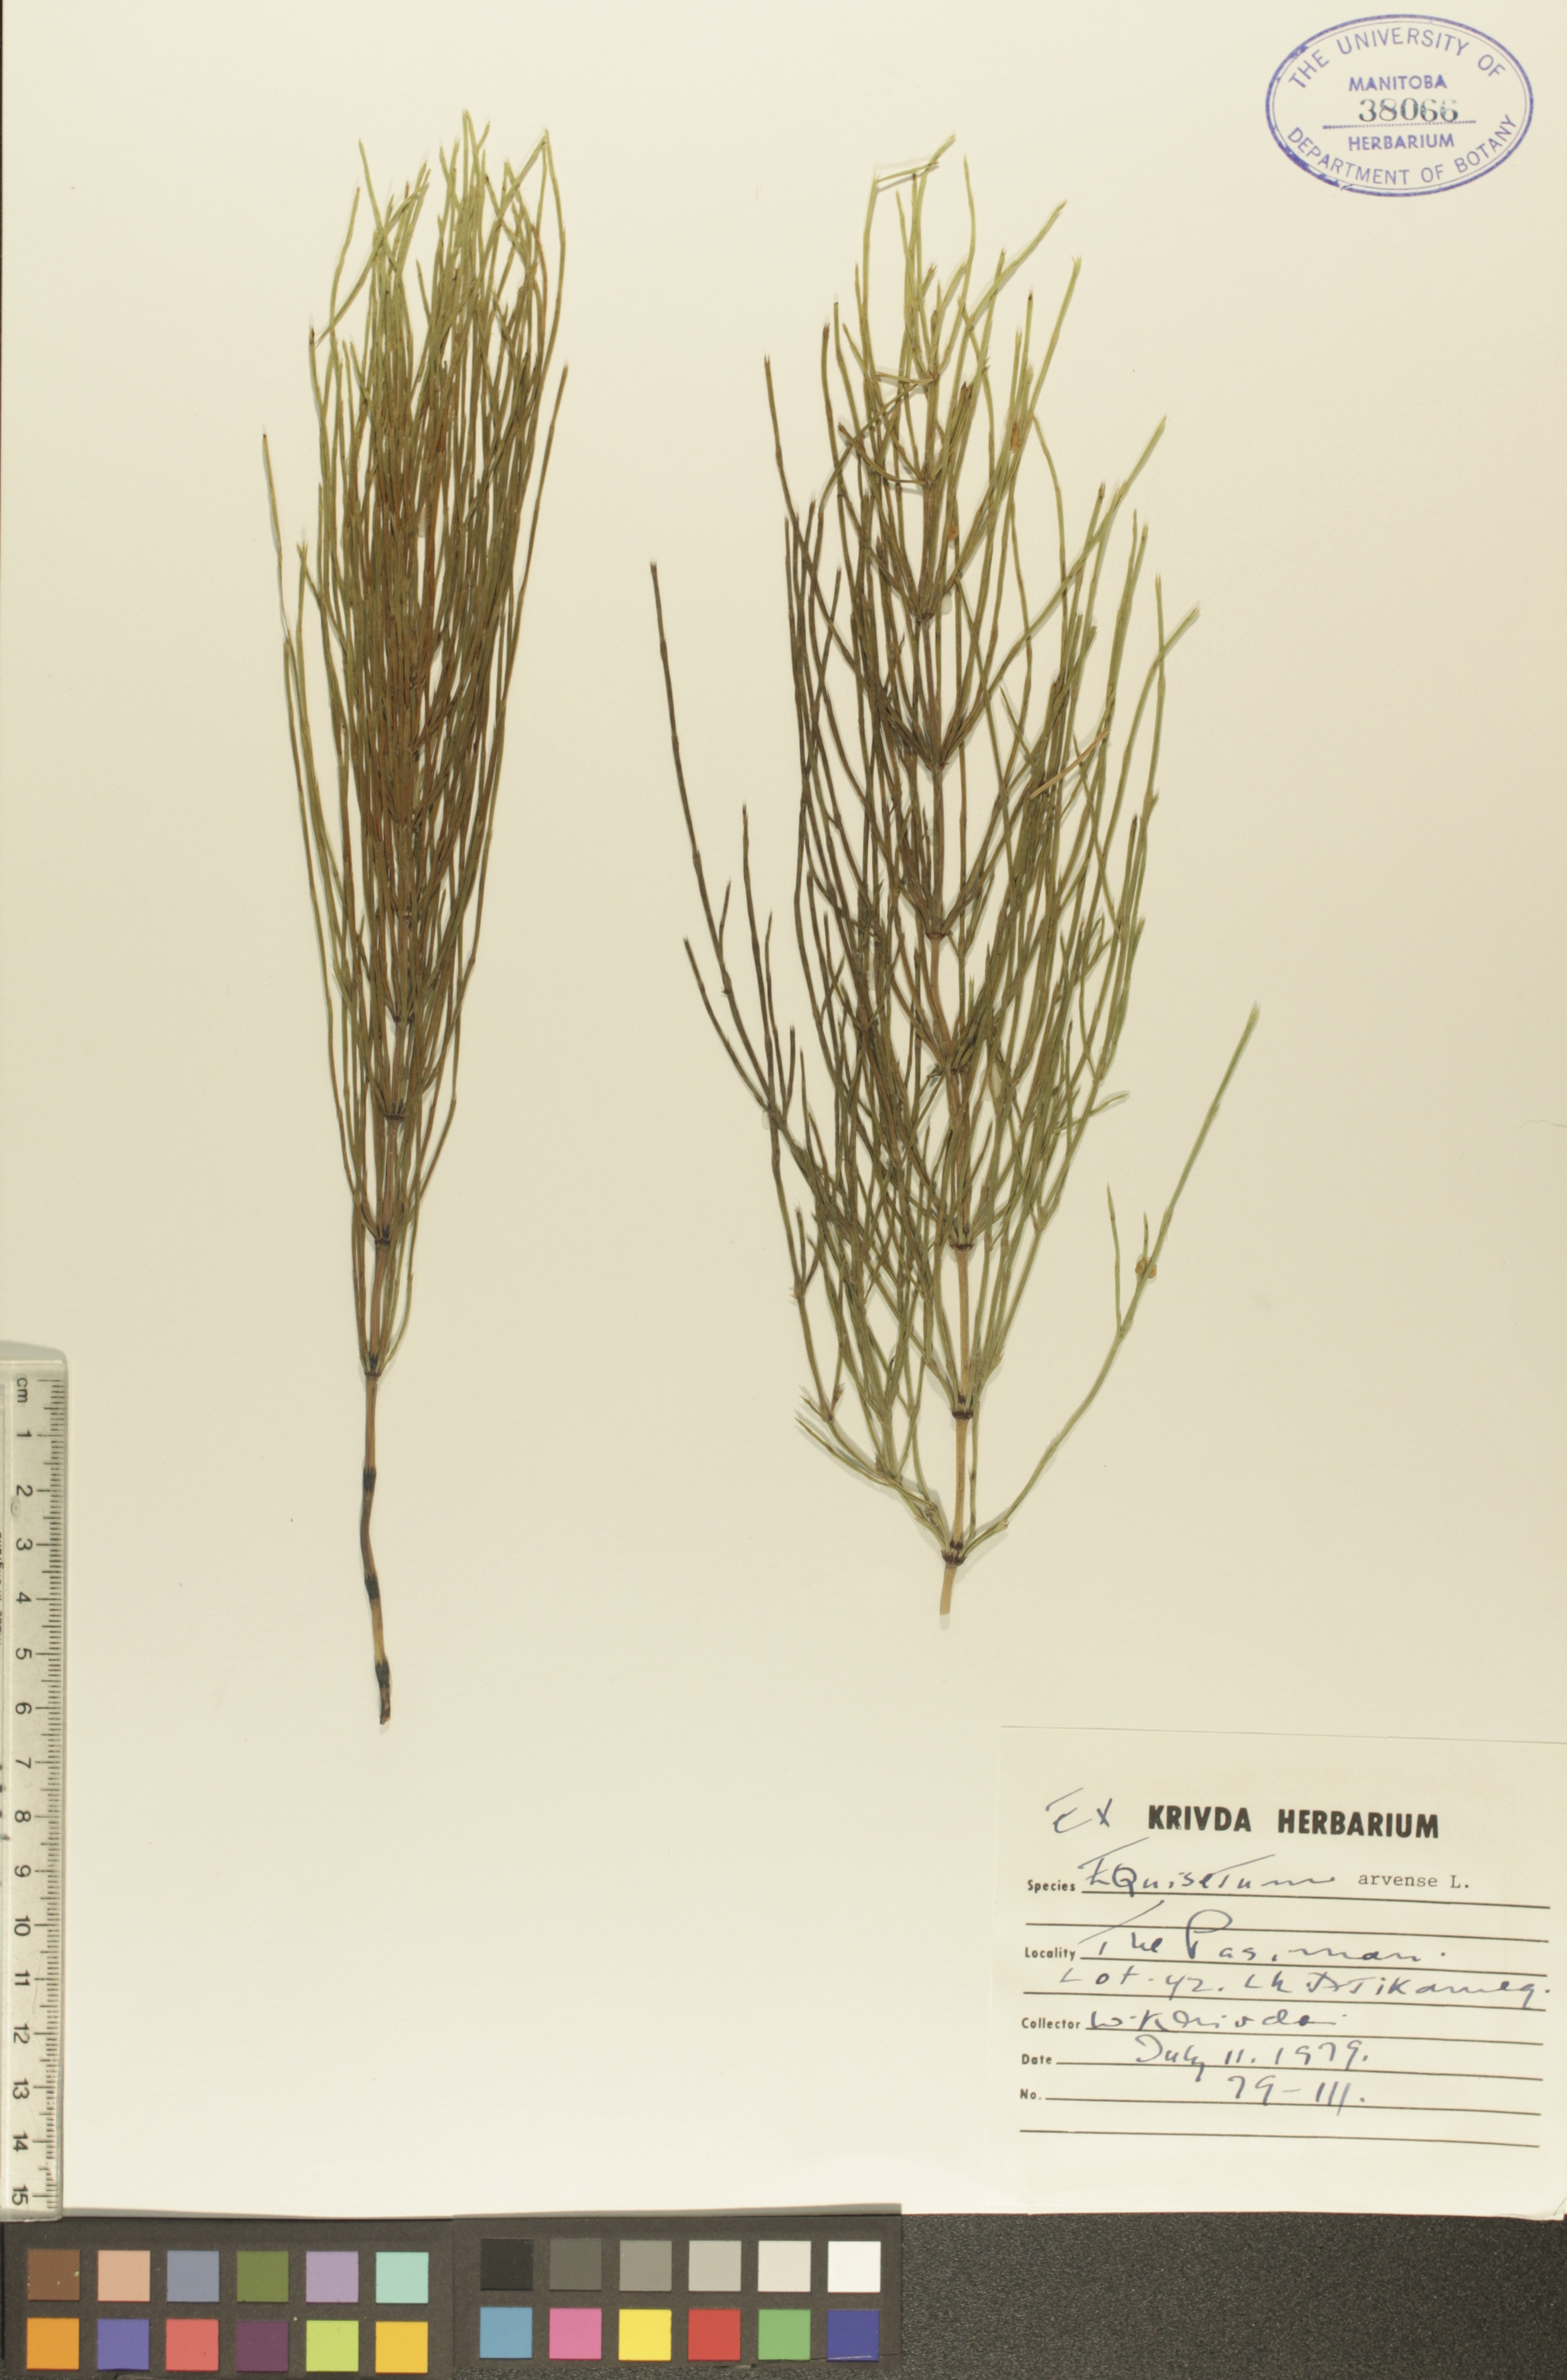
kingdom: Plantae
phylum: Tracheophyta
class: Polypodiopsida
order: Equisetales
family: Equisetaceae
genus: Equisetum
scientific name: Equisetum arvense
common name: Field horsetail
